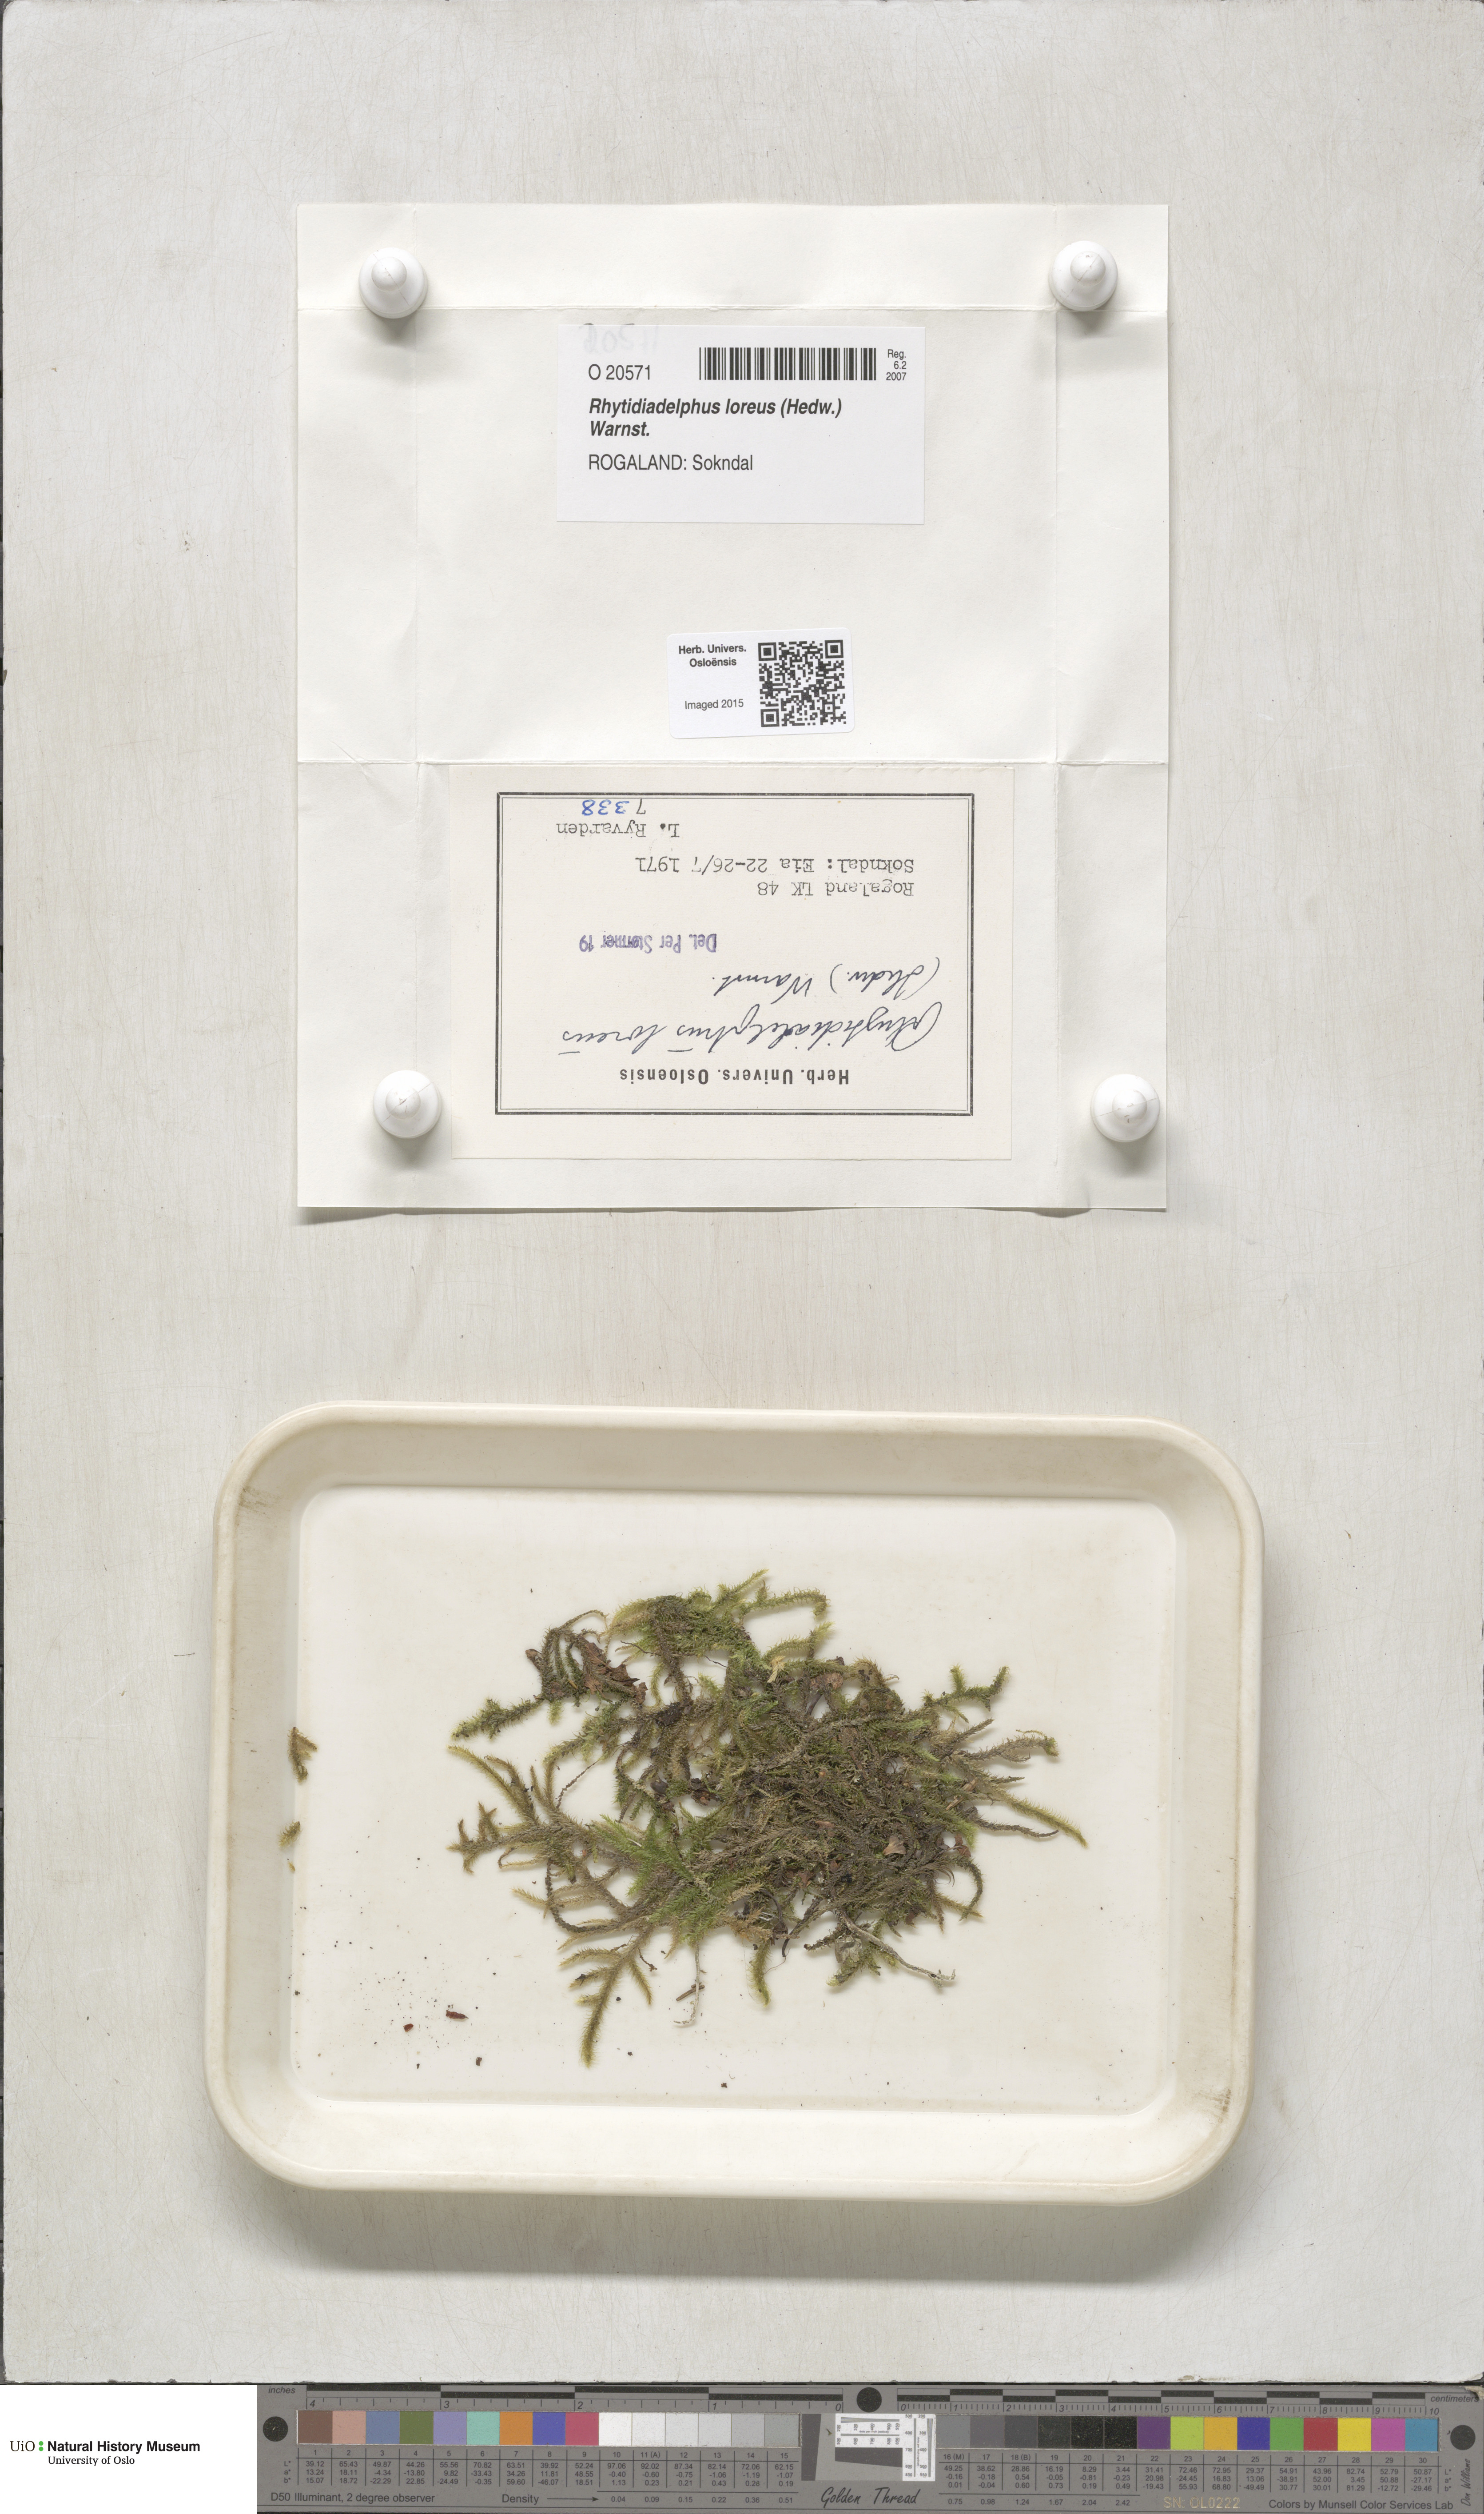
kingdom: Plantae
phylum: Bryophyta
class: Bryopsida
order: Hypnales
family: Hylocomiaceae
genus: Rhytidiadelphus
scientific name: Rhytidiadelphus loreus
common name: Lanky moss
